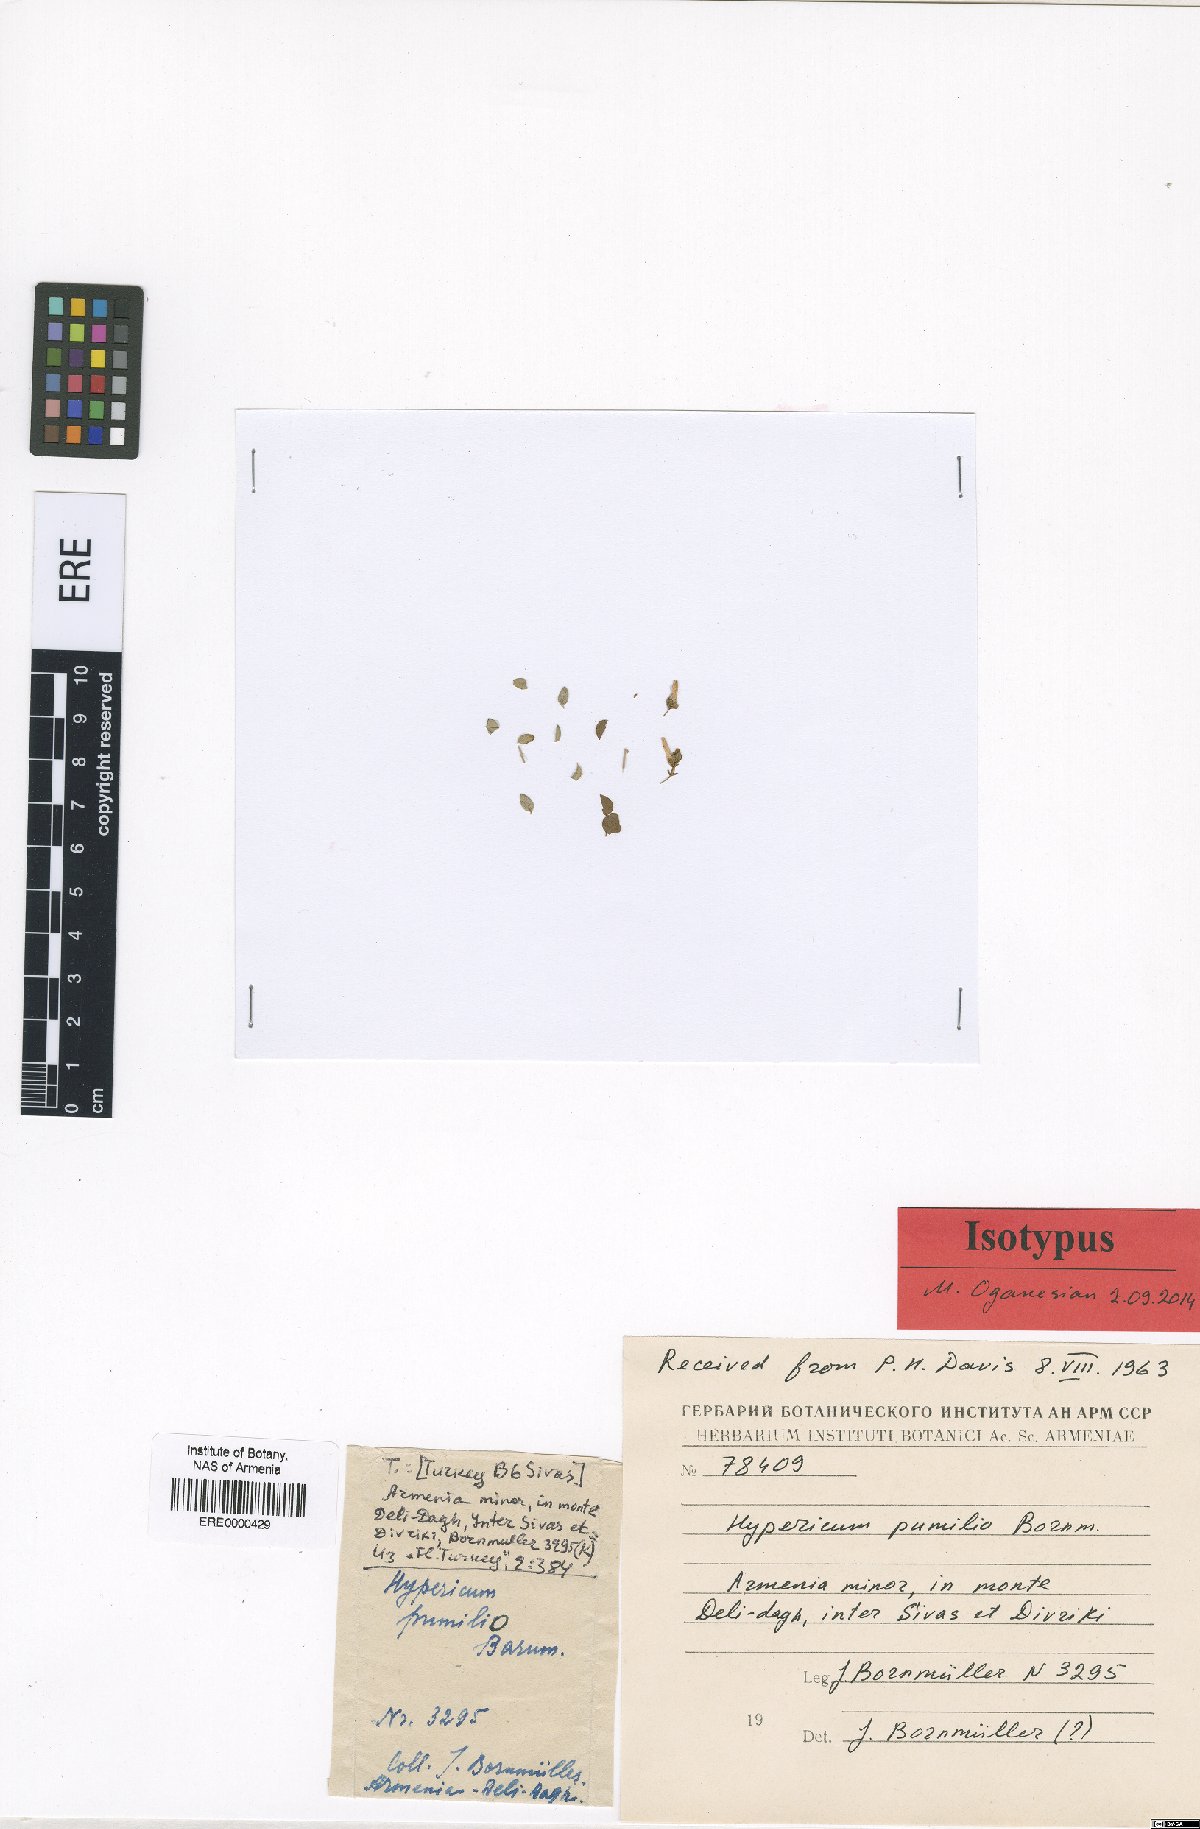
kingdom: Plantae
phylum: Tracheophyta
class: Magnoliopsida
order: Malpighiales
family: Hypericaceae
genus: Hypericum
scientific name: Hypericum pumilio
